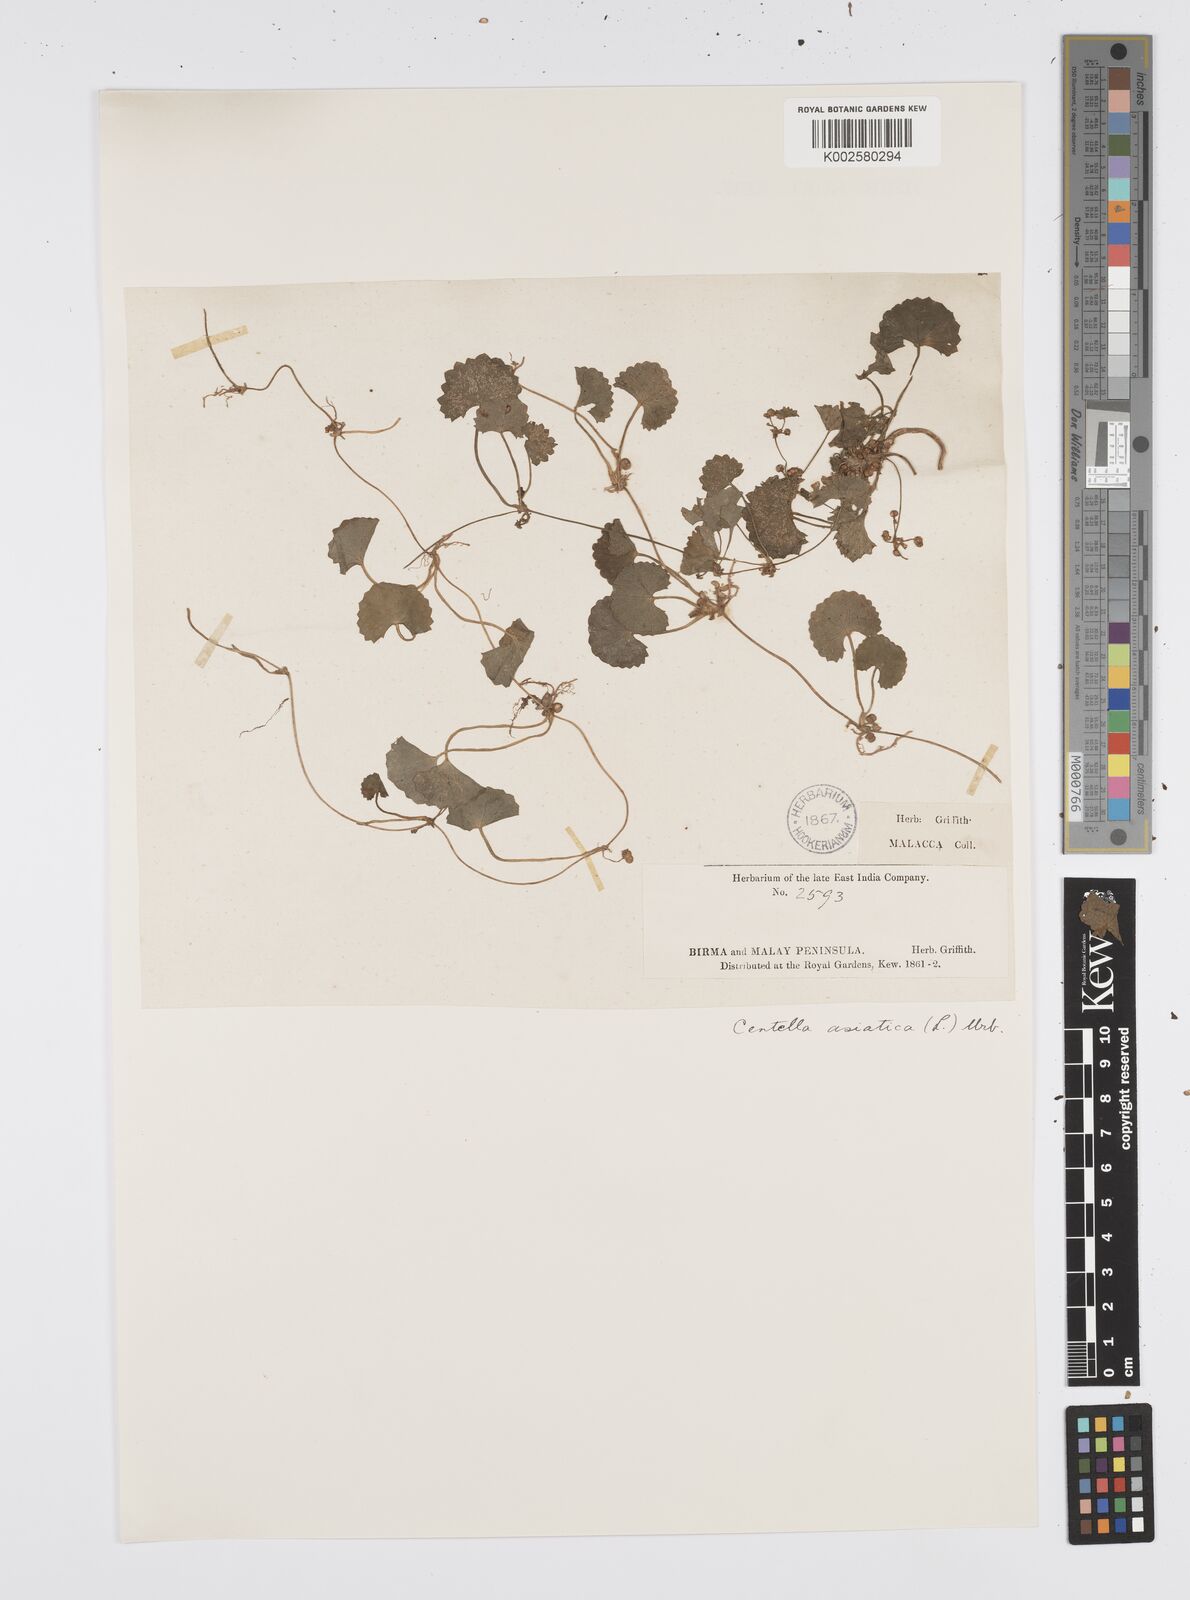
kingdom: Plantae
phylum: Tracheophyta
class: Magnoliopsida
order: Apiales
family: Apiaceae
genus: Centella
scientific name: Centella asiatica
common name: Spadeleaf
